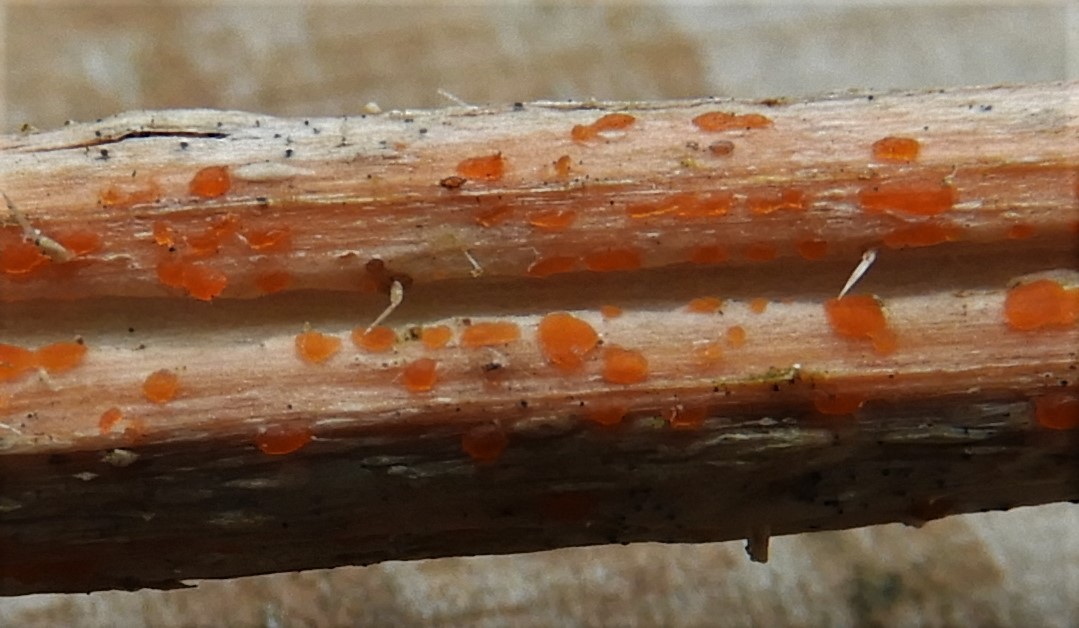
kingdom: Fungi
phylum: Ascomycota
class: Leotiomycetes
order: Helotiales
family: Calloriaceae
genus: Calloria
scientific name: Calloria urticae
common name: nælde-orangeskive
